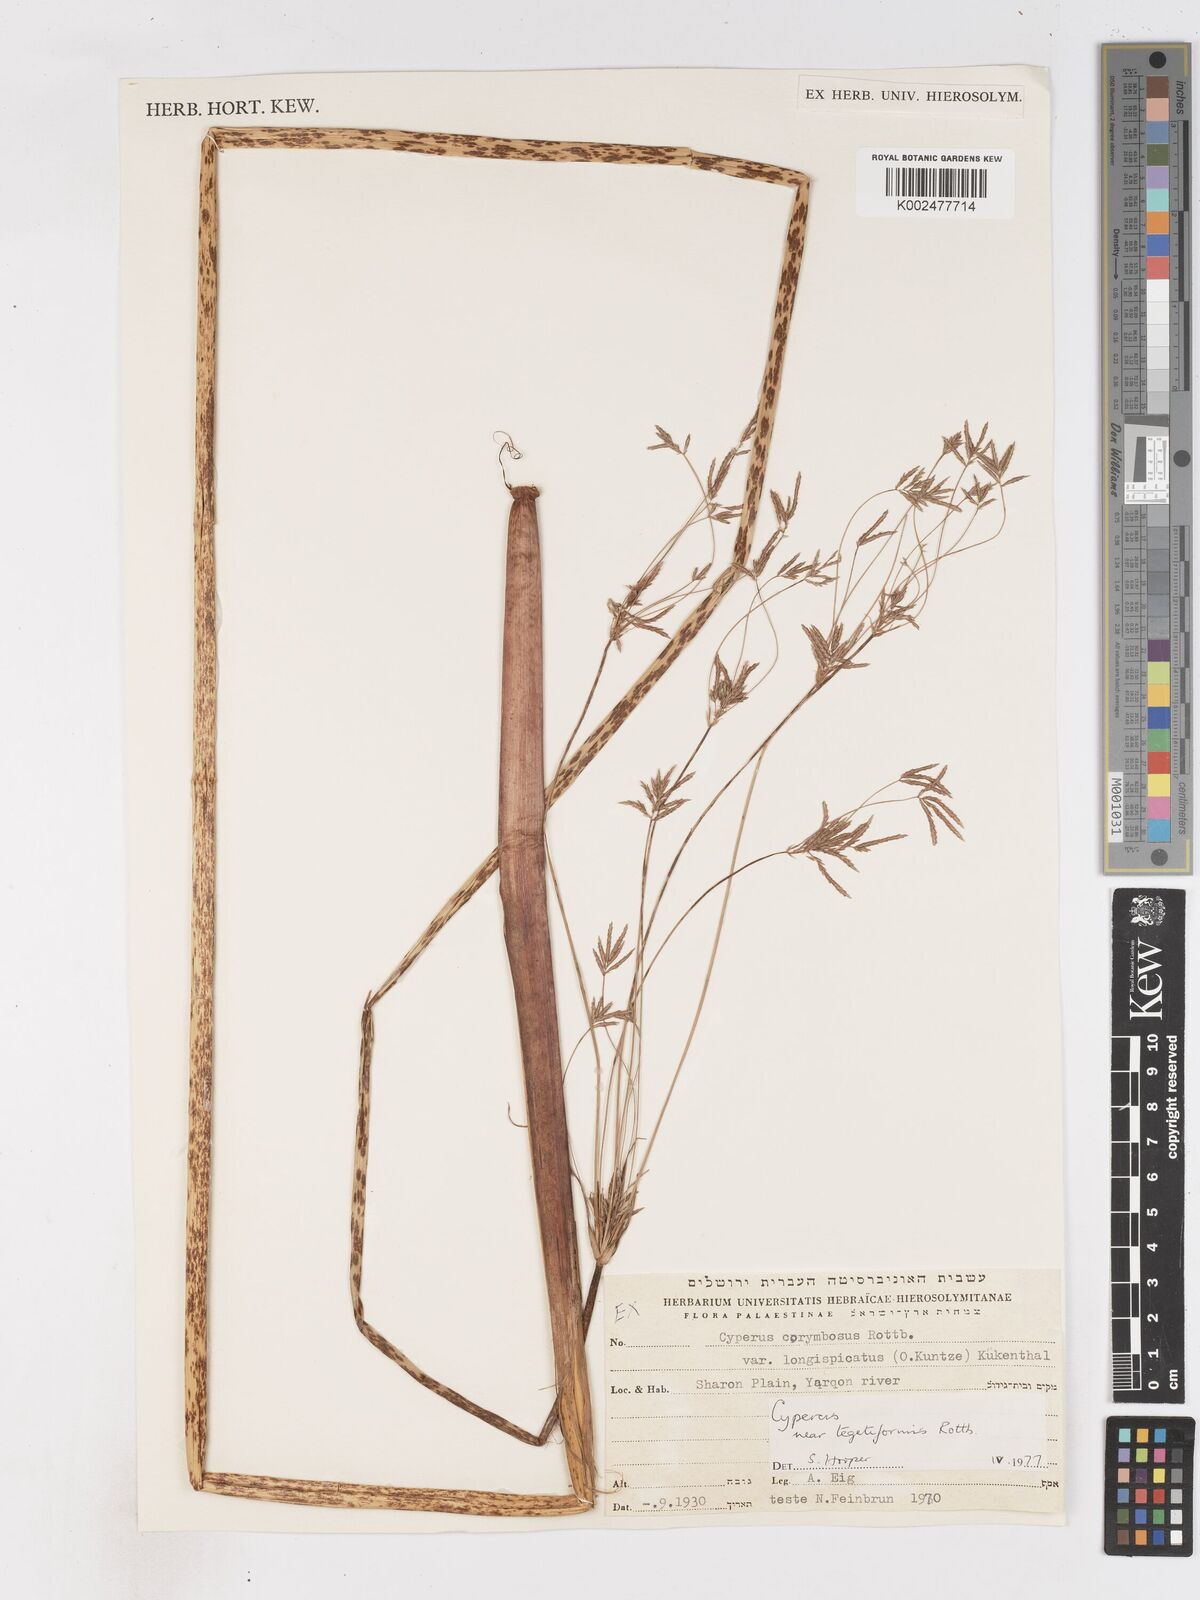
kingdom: Plantae
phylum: Tracheophyta
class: Liliopsida
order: Poales
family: Cyperaceae
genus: Cyperus
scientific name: Cyperus corymbosus
